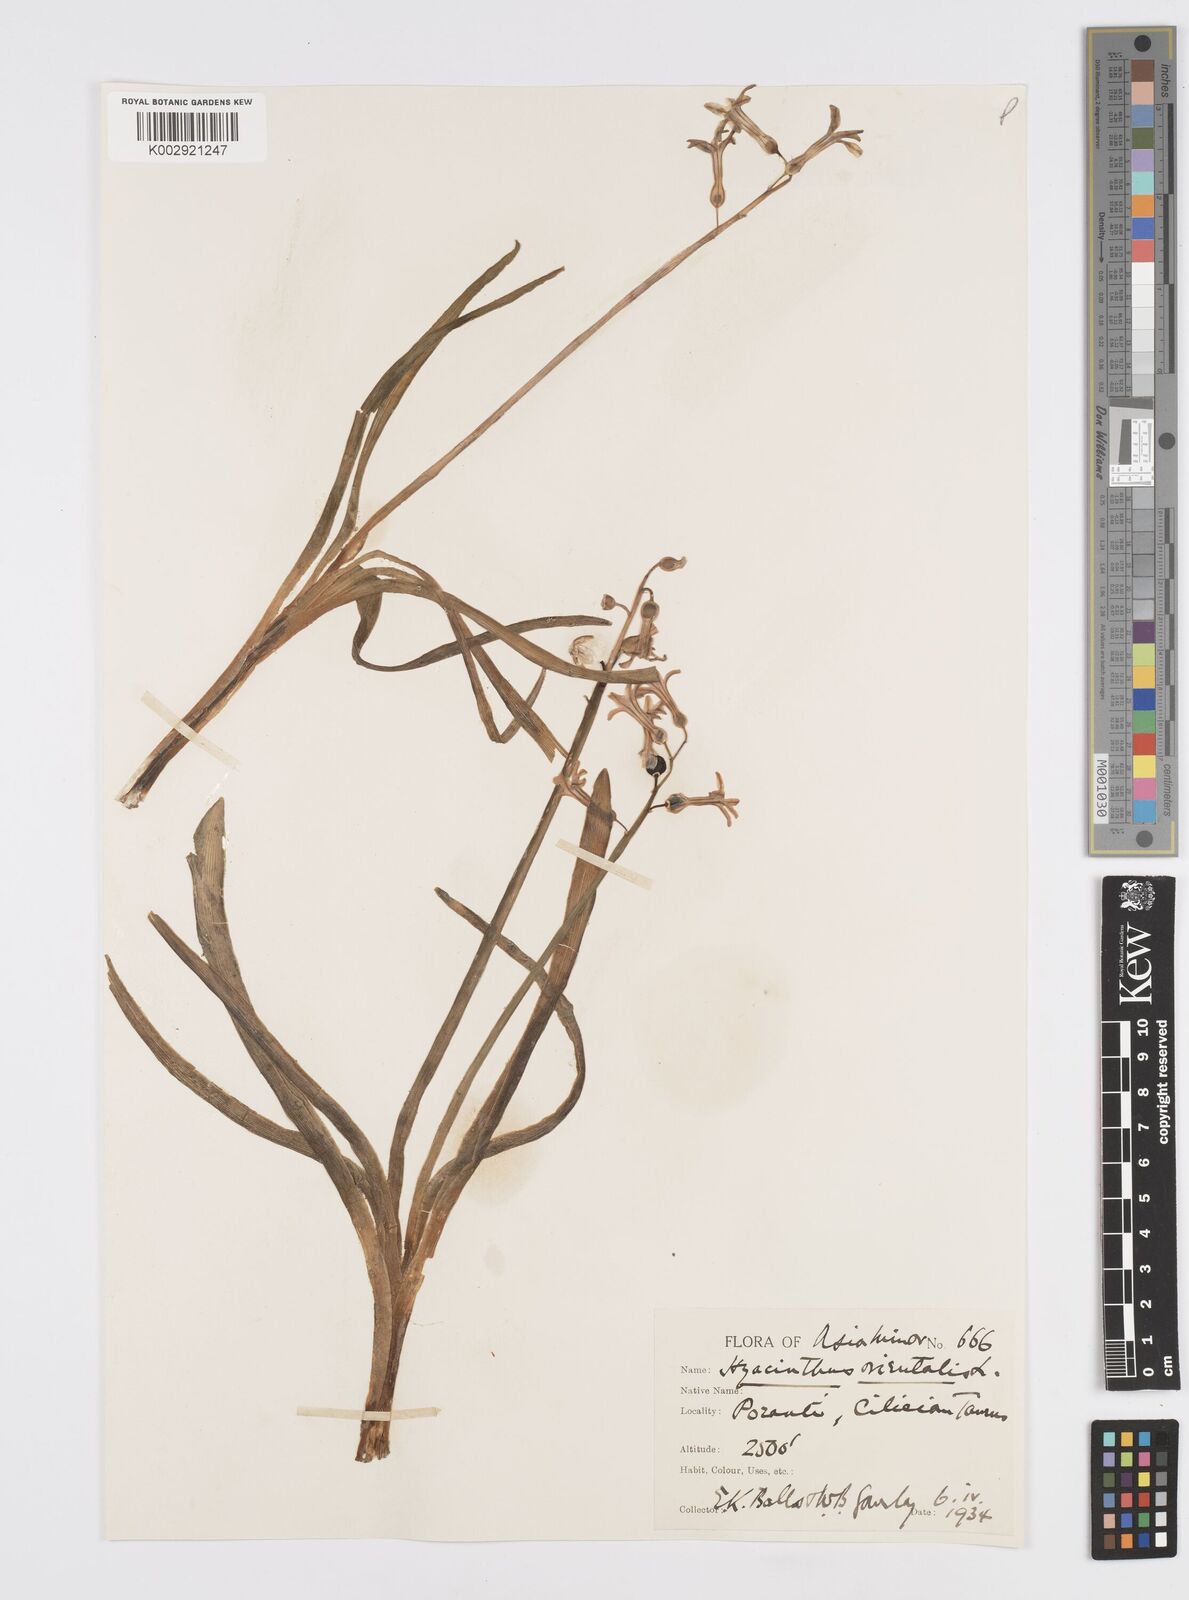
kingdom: Plantae
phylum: Tracheophyta
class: Liliopsida
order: Asparagales
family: Asparagaceae
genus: Hyacinthus
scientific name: Hyacinthus orientalis
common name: Hyacinth
